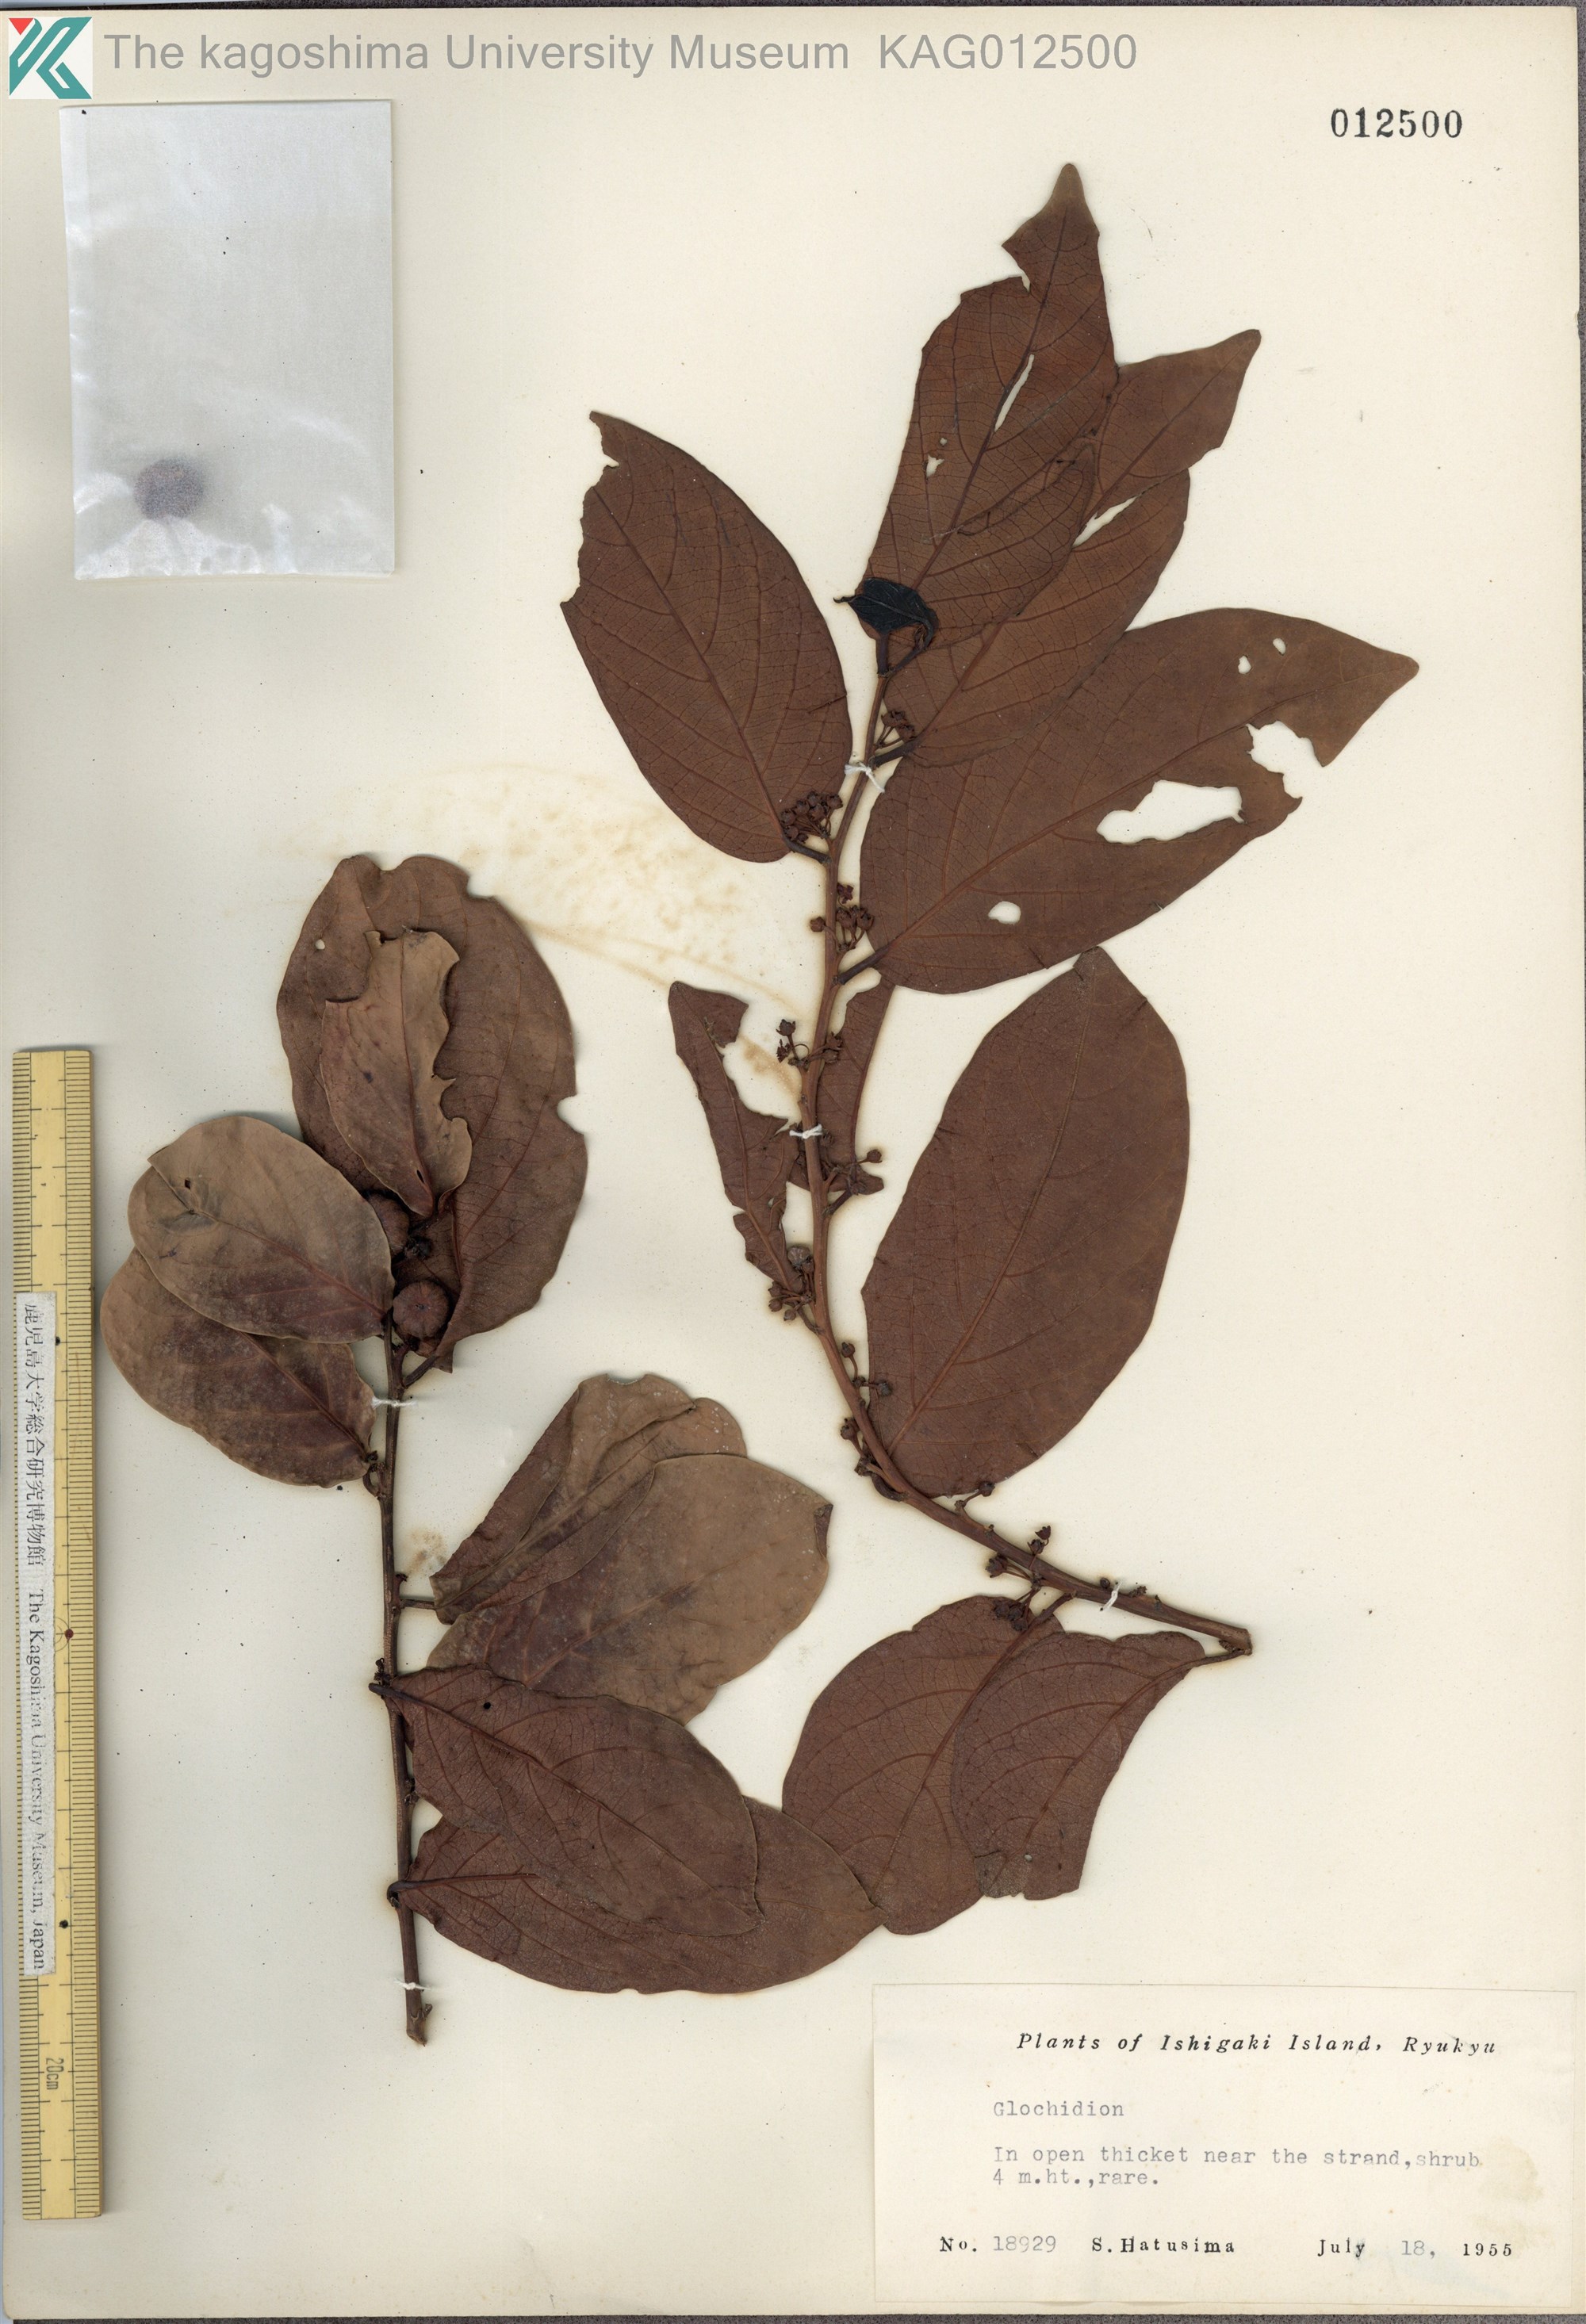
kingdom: Plantae
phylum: Tracheophyta
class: Magnoliopsida
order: Malpighiales
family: Phyllanthaceae
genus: Glochidion
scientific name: Glochidion zeylanicum
